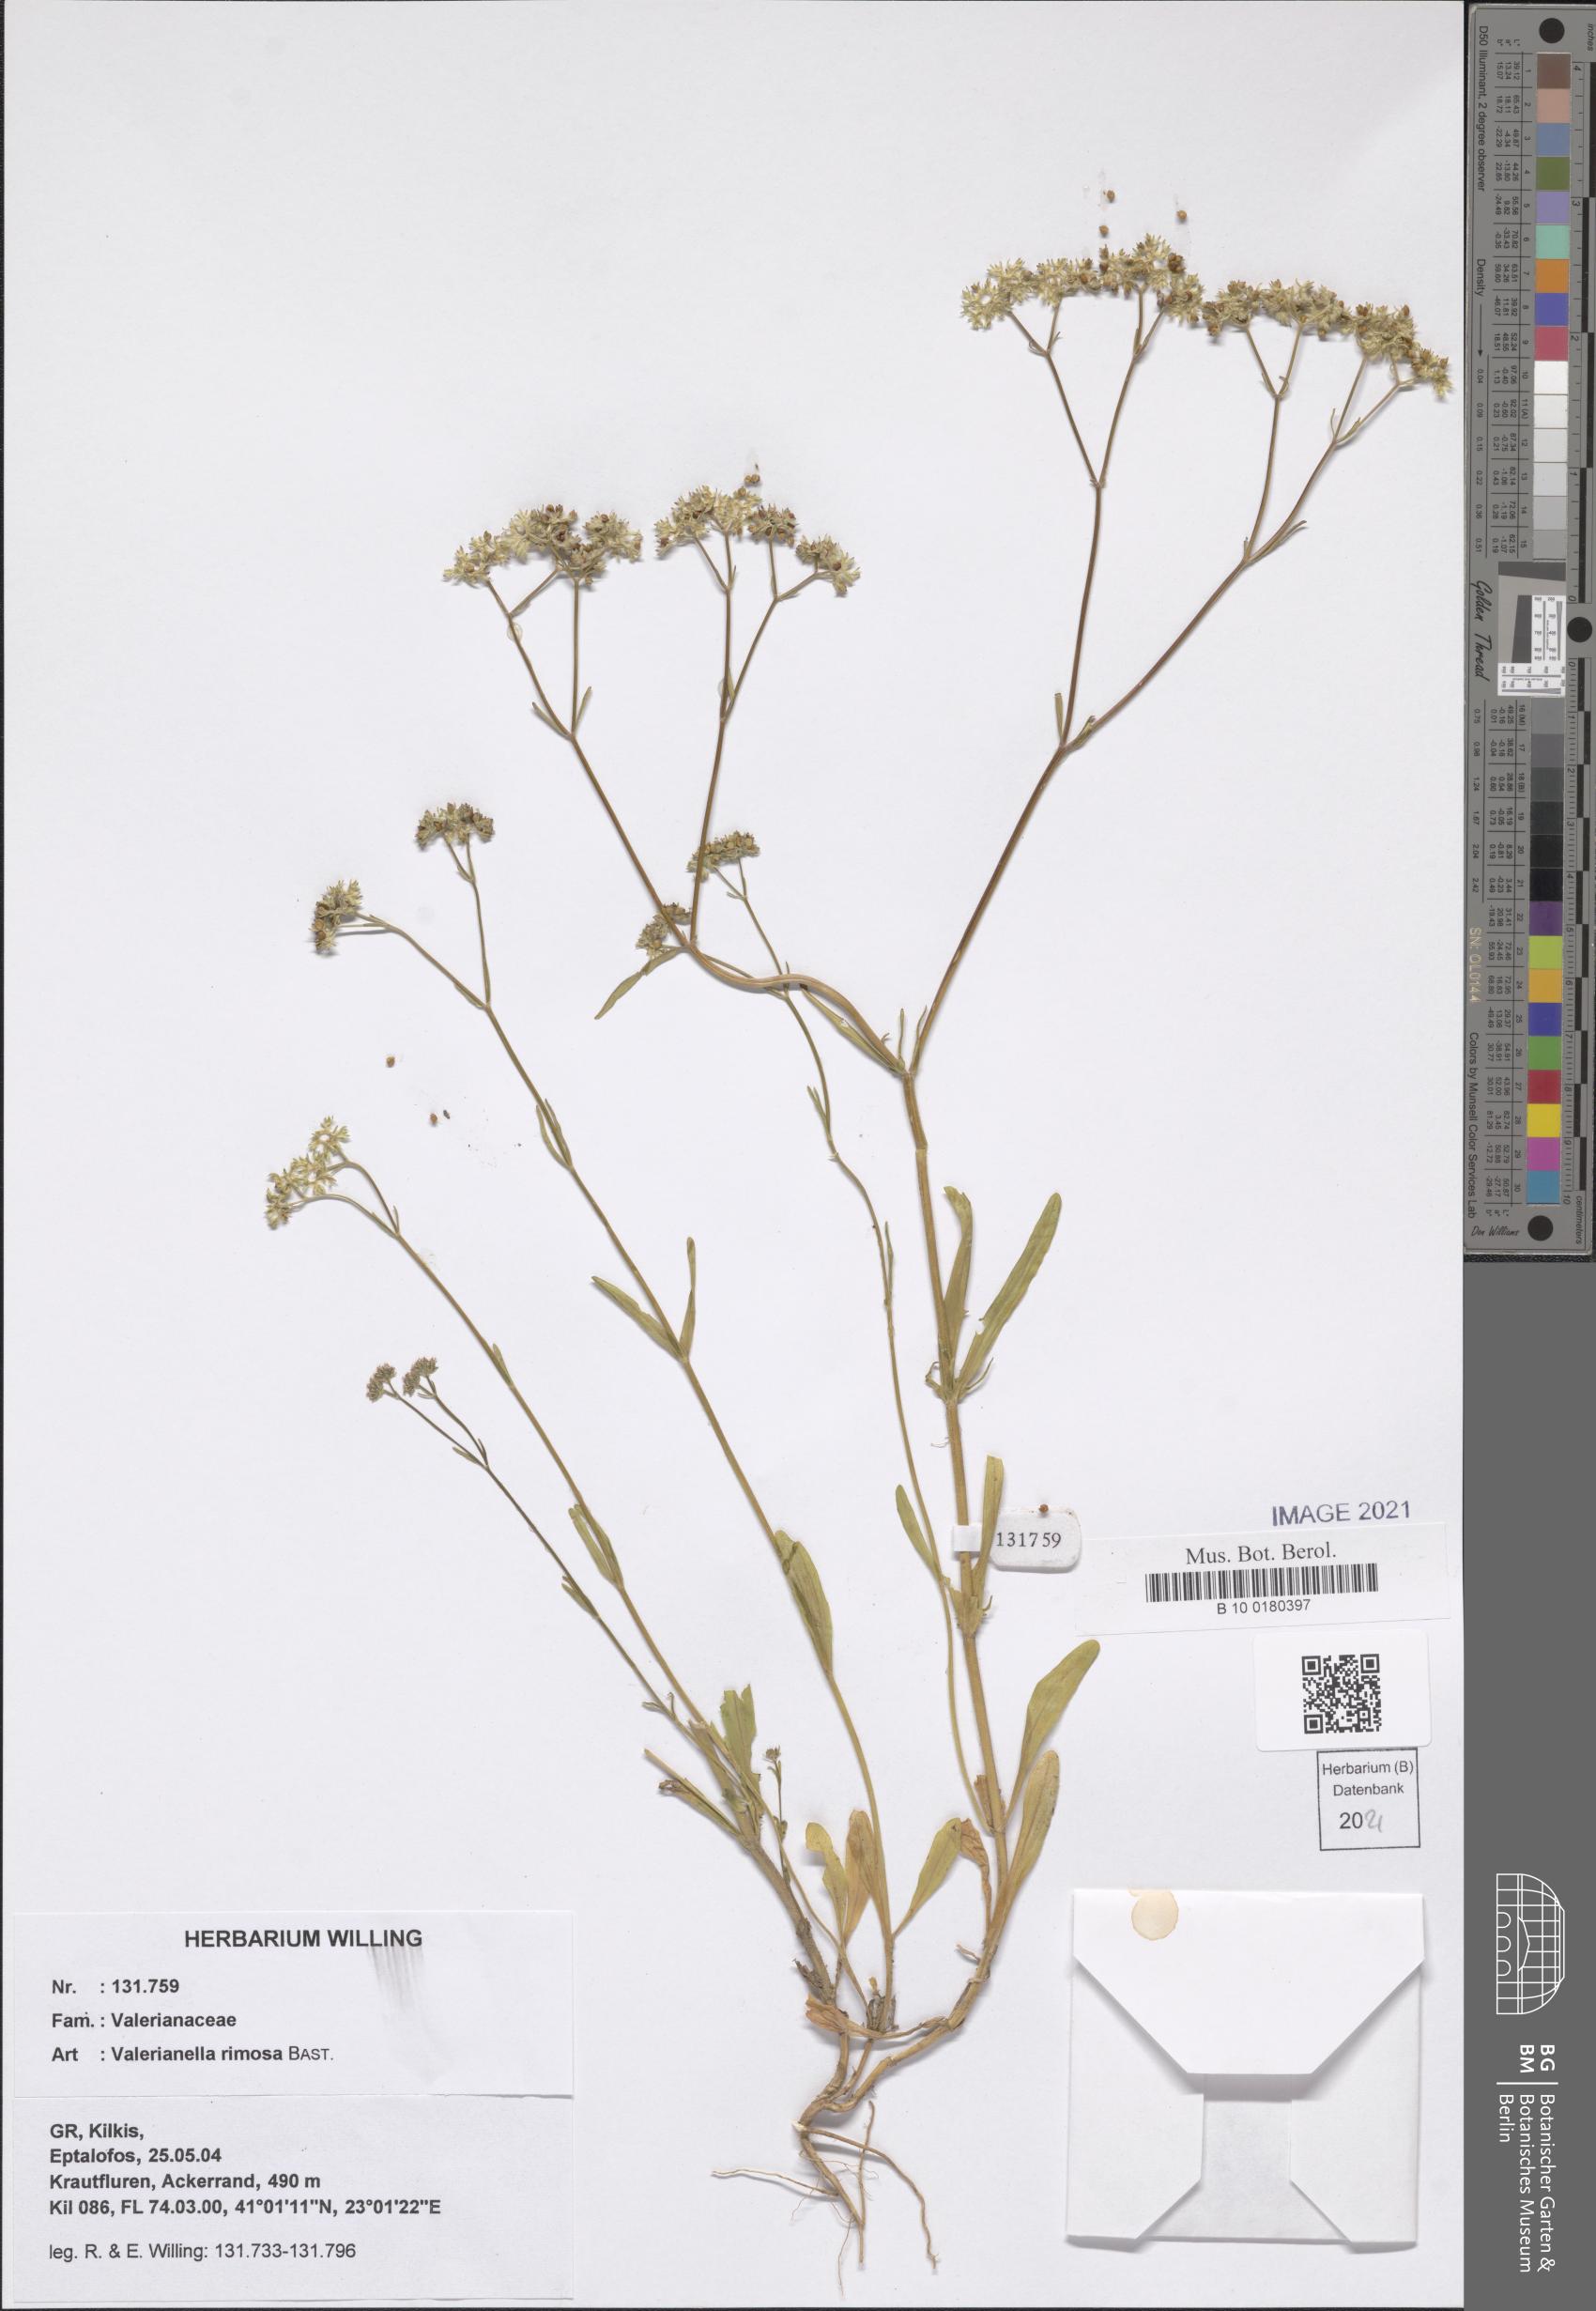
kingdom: Plantae
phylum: Tracheophyta
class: Magnoliopsida
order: Dipsacales
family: Caprifoliaceae
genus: Valerianella
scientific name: Valerianella rimosa
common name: Broad-fruited cornsalad
